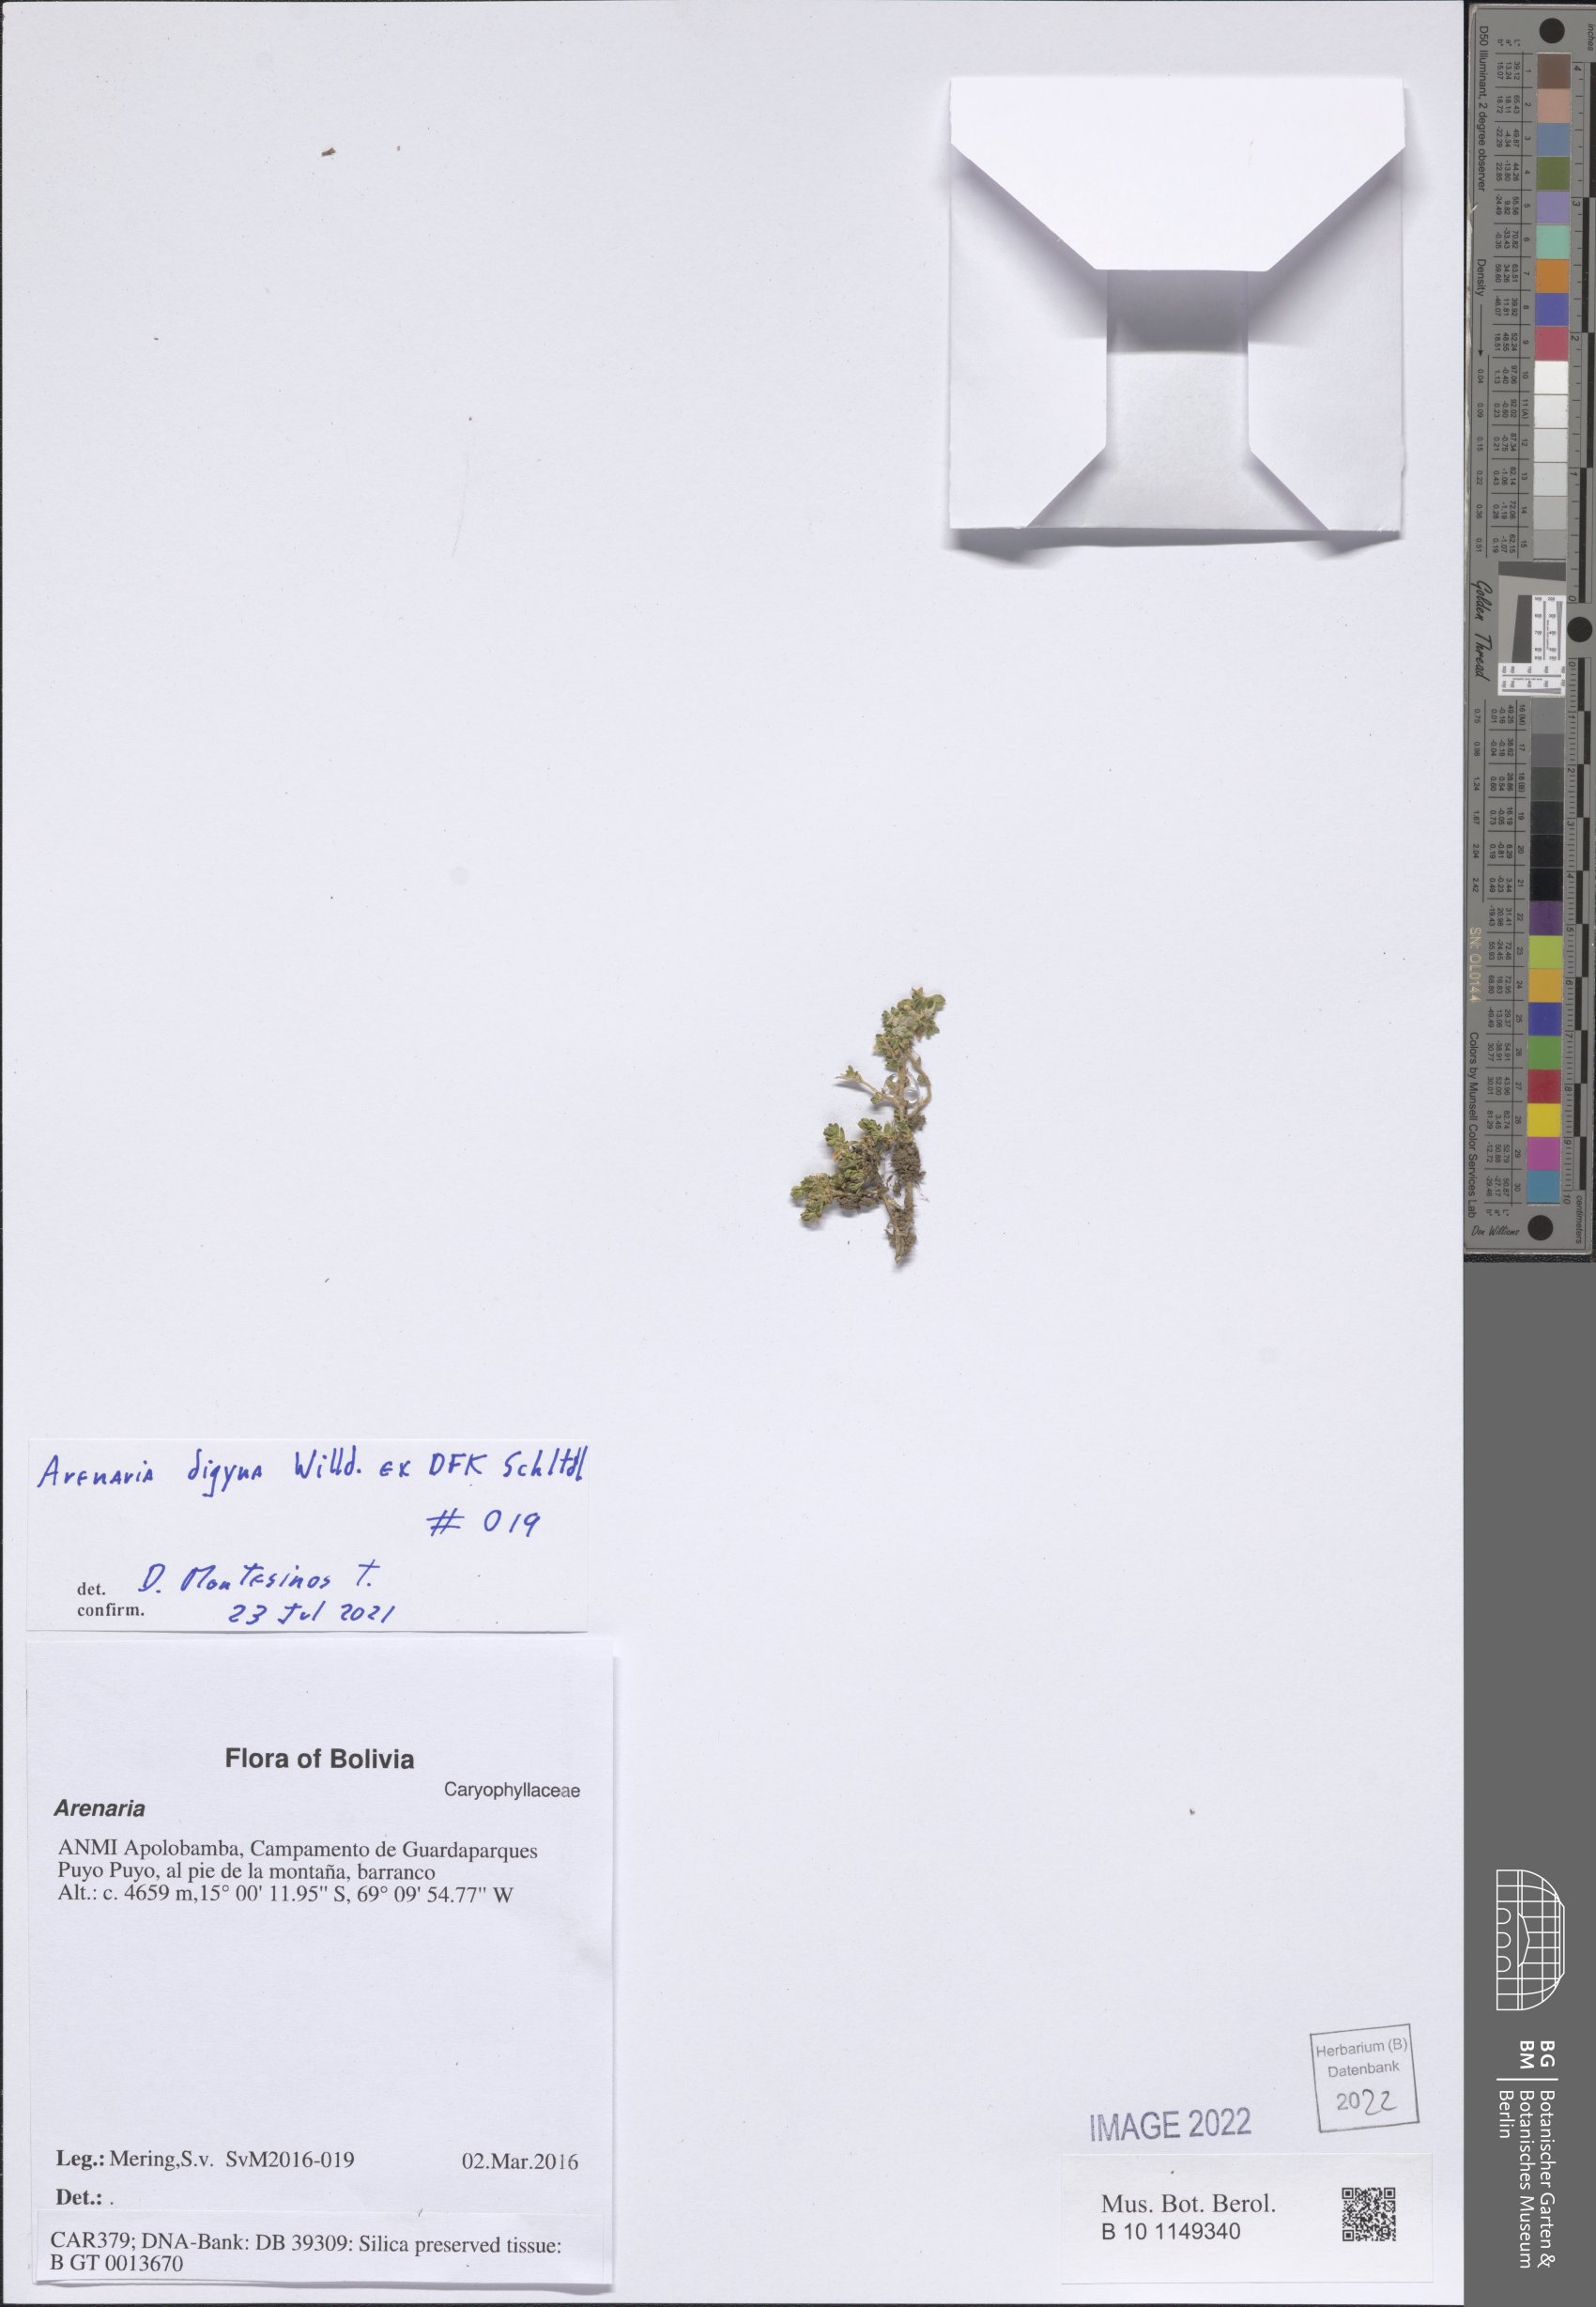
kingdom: Plantae
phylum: Tracheophyta
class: Magnoliopsida
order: Caryophyllales
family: Caryophyllaceae
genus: Arenaria
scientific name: Arenaria digyna
